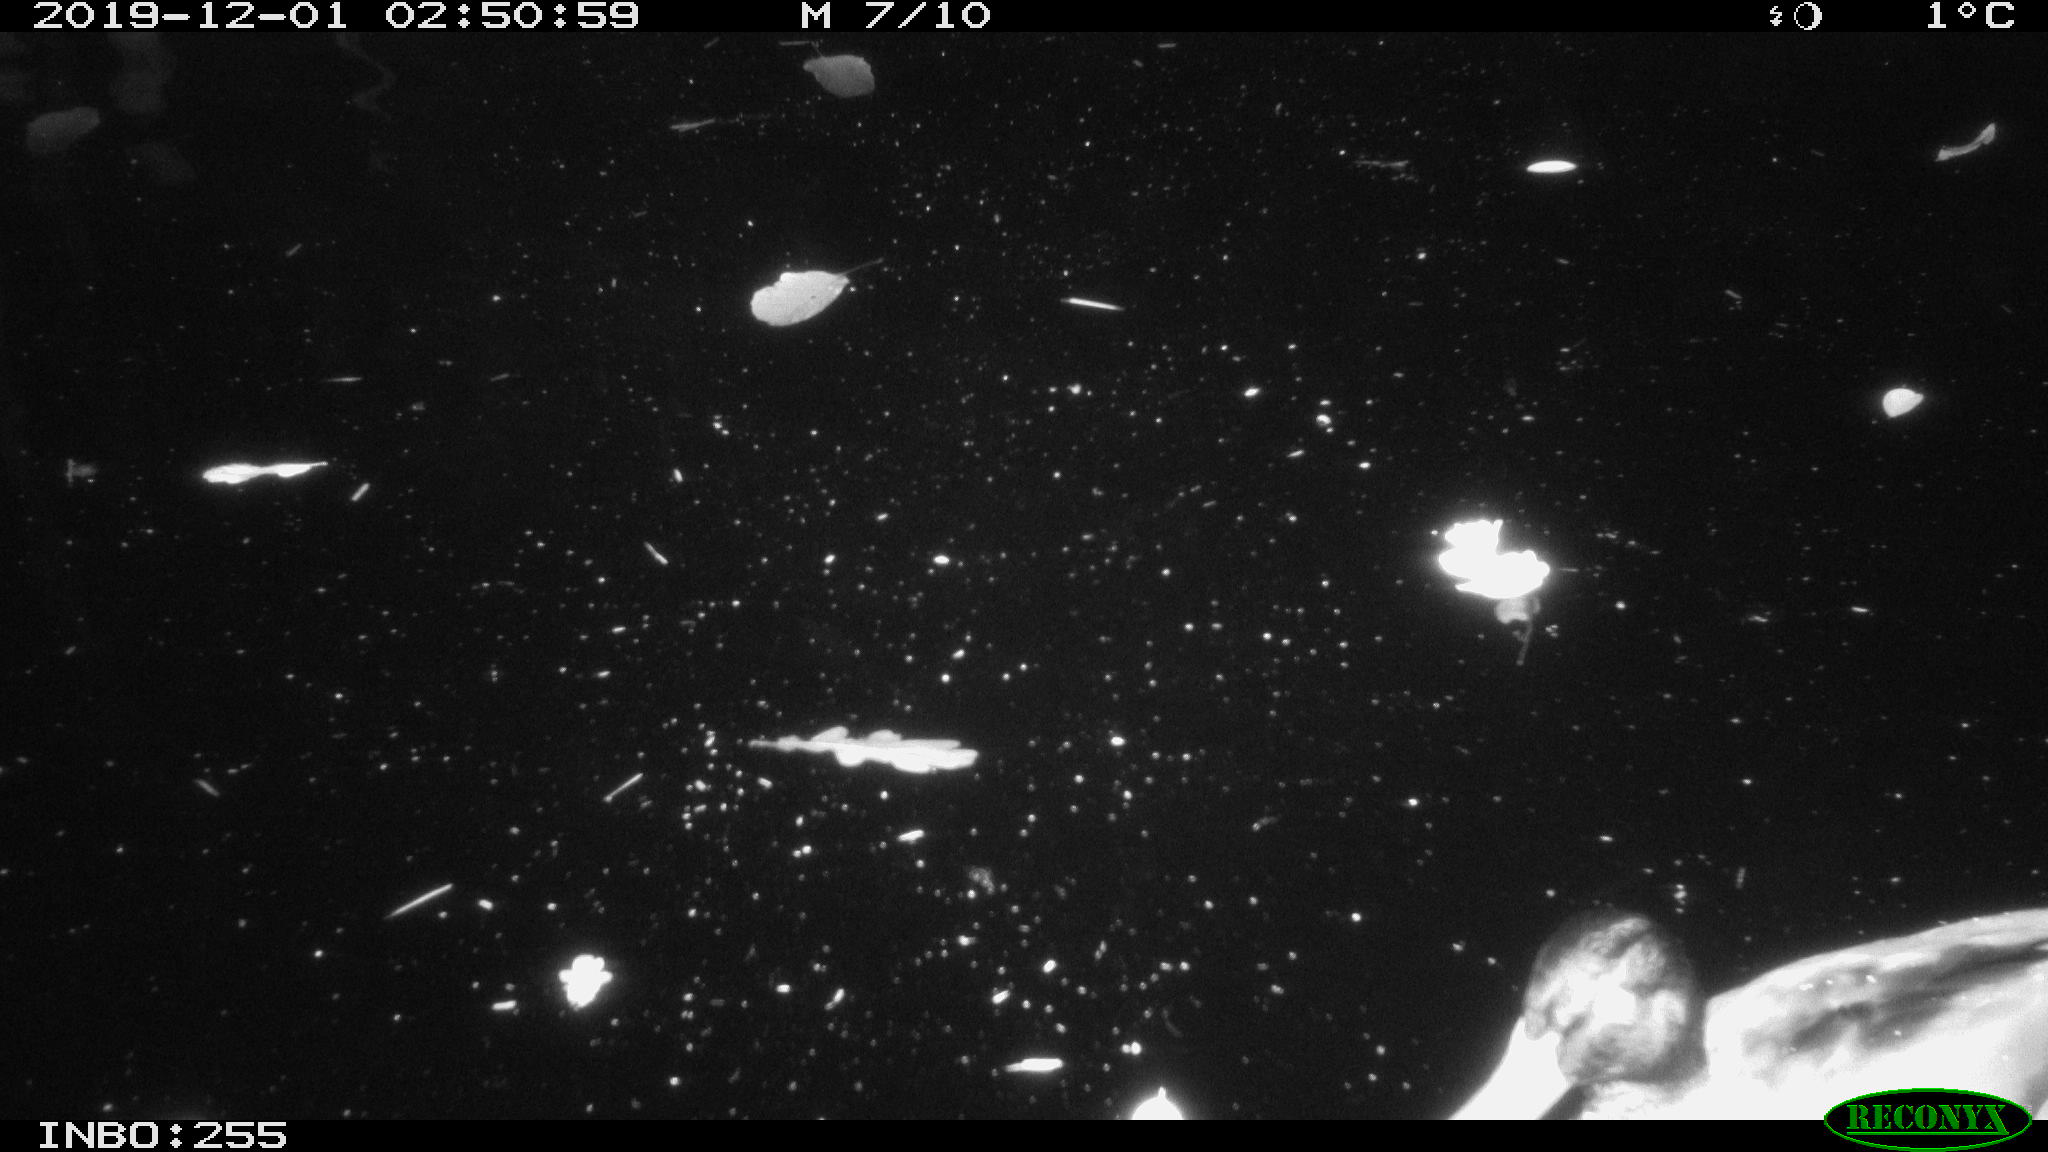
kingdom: Animalia
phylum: Chordata
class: Aves
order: Anseriformes
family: Anatidae
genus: Anas
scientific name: Anas platyrhynchos
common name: Mallard
